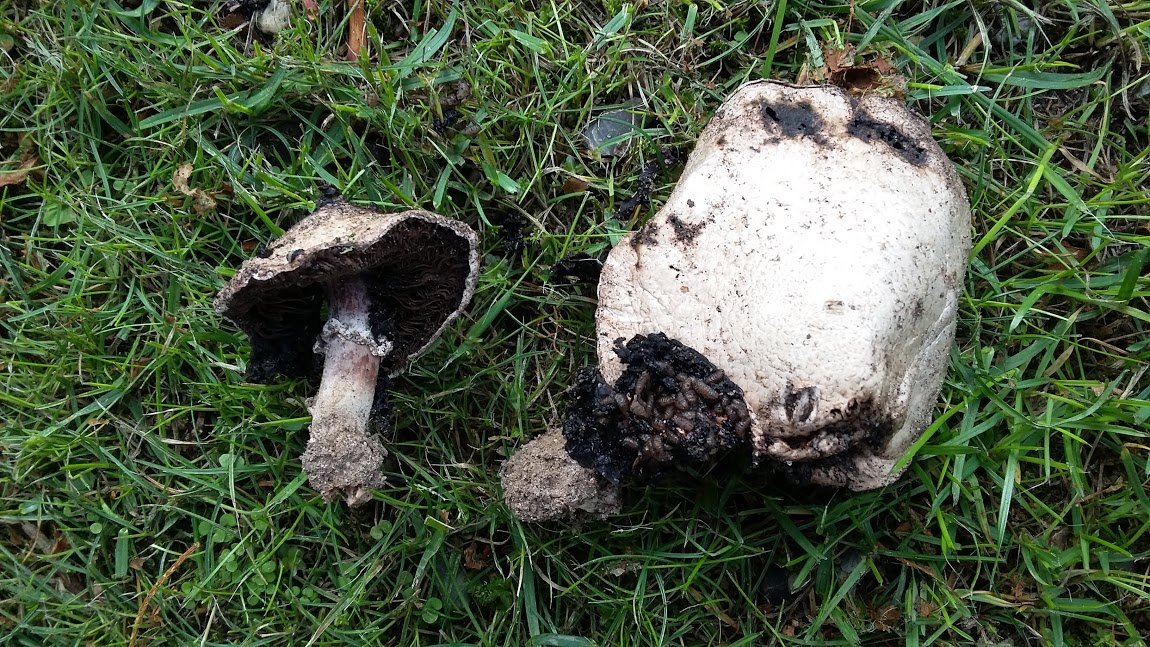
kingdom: Fungi
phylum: Basidiomycota
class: Agaricomycetes
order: Agaricales
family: Agaricaceae
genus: Agaricus
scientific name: Agaricus bitorquis
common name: vej-champignon
